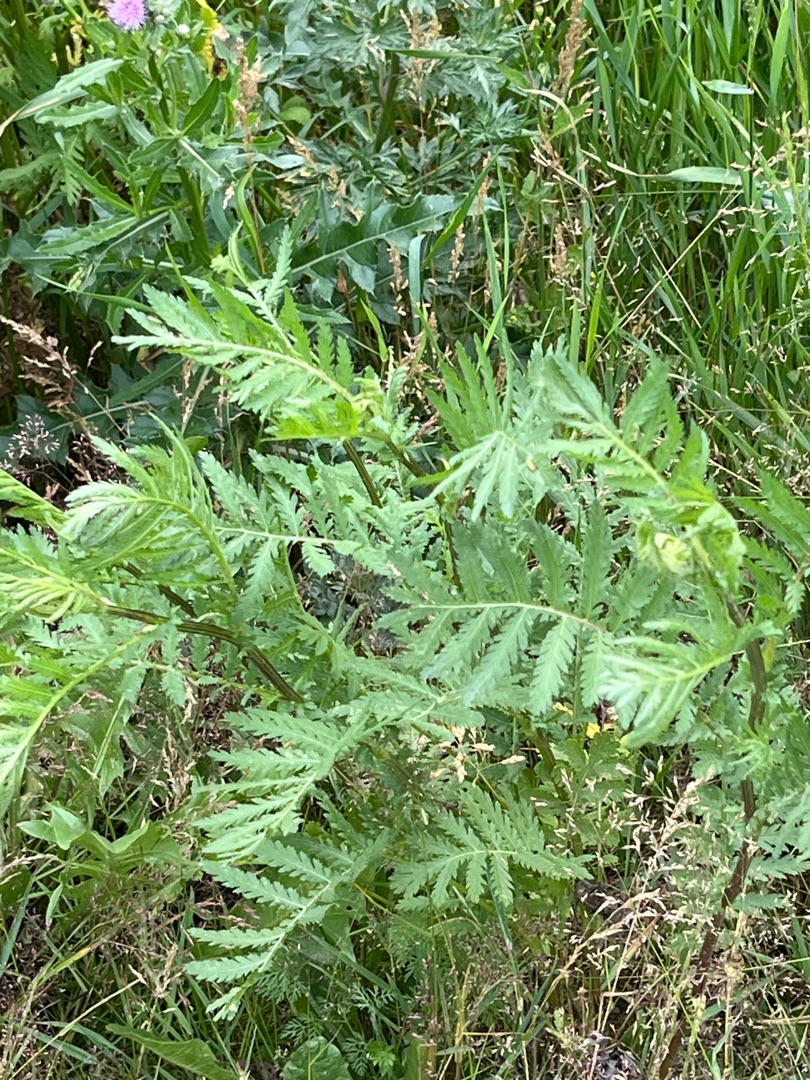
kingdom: Plantae
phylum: Tracheophyta
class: Magnoliopsida
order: Asterales
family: Asteraceae
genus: Tanacetum
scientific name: Tanacetum vulgare
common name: Rejnfan
